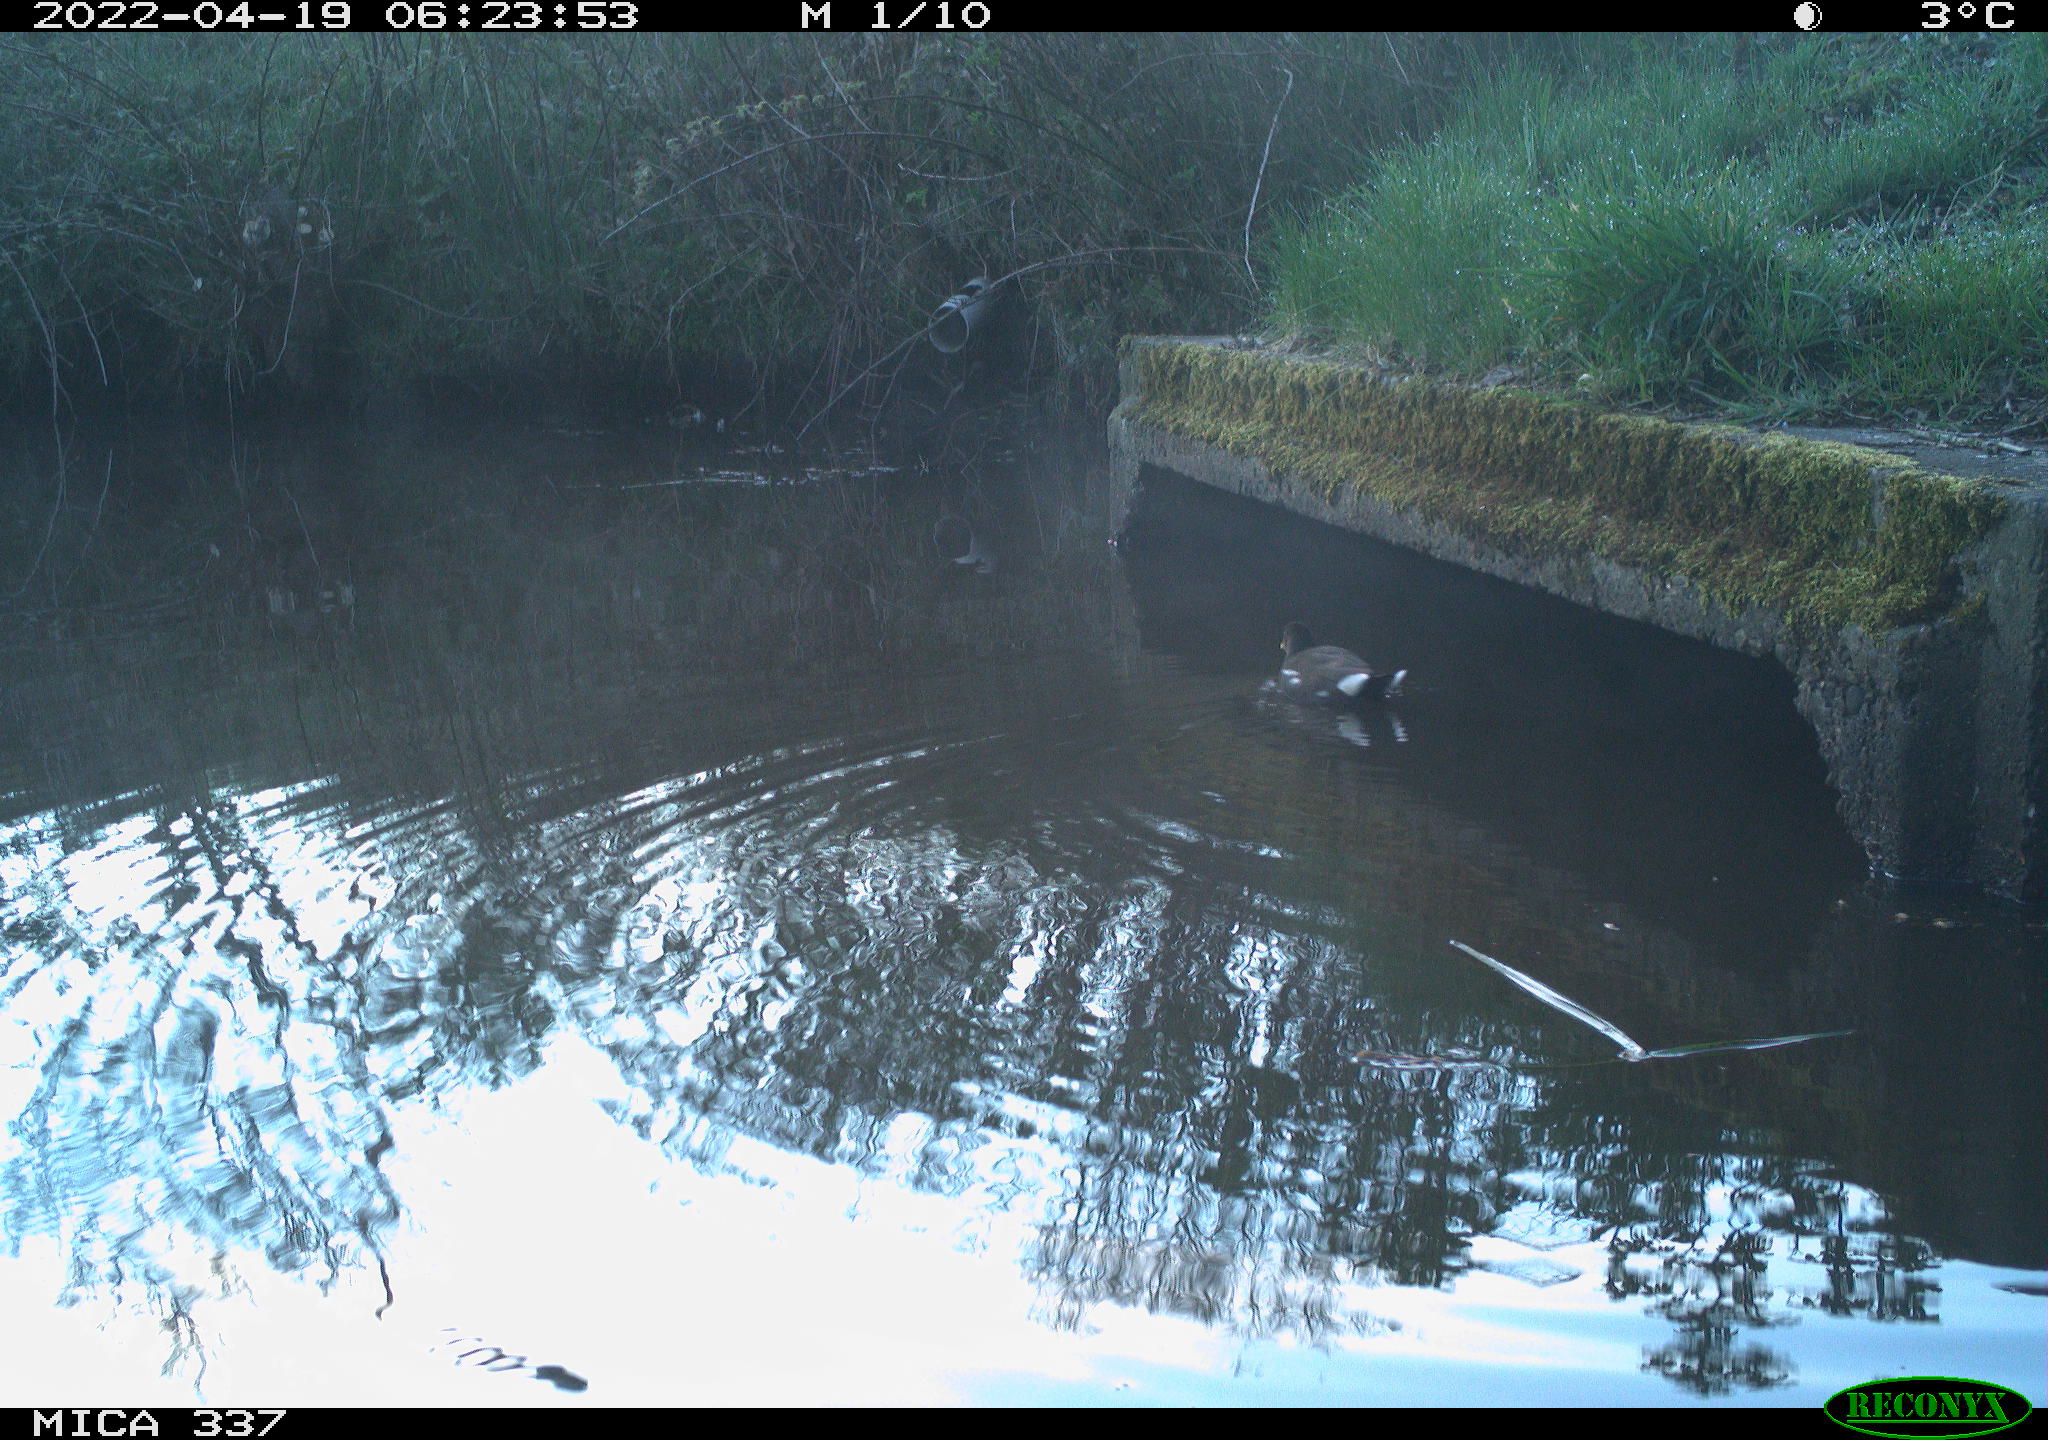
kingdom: Animalia
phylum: Chordata
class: Aves
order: Gruiformes
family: Rallidae
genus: Gallinula
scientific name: Gallinula chloropus
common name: Common moorhen
